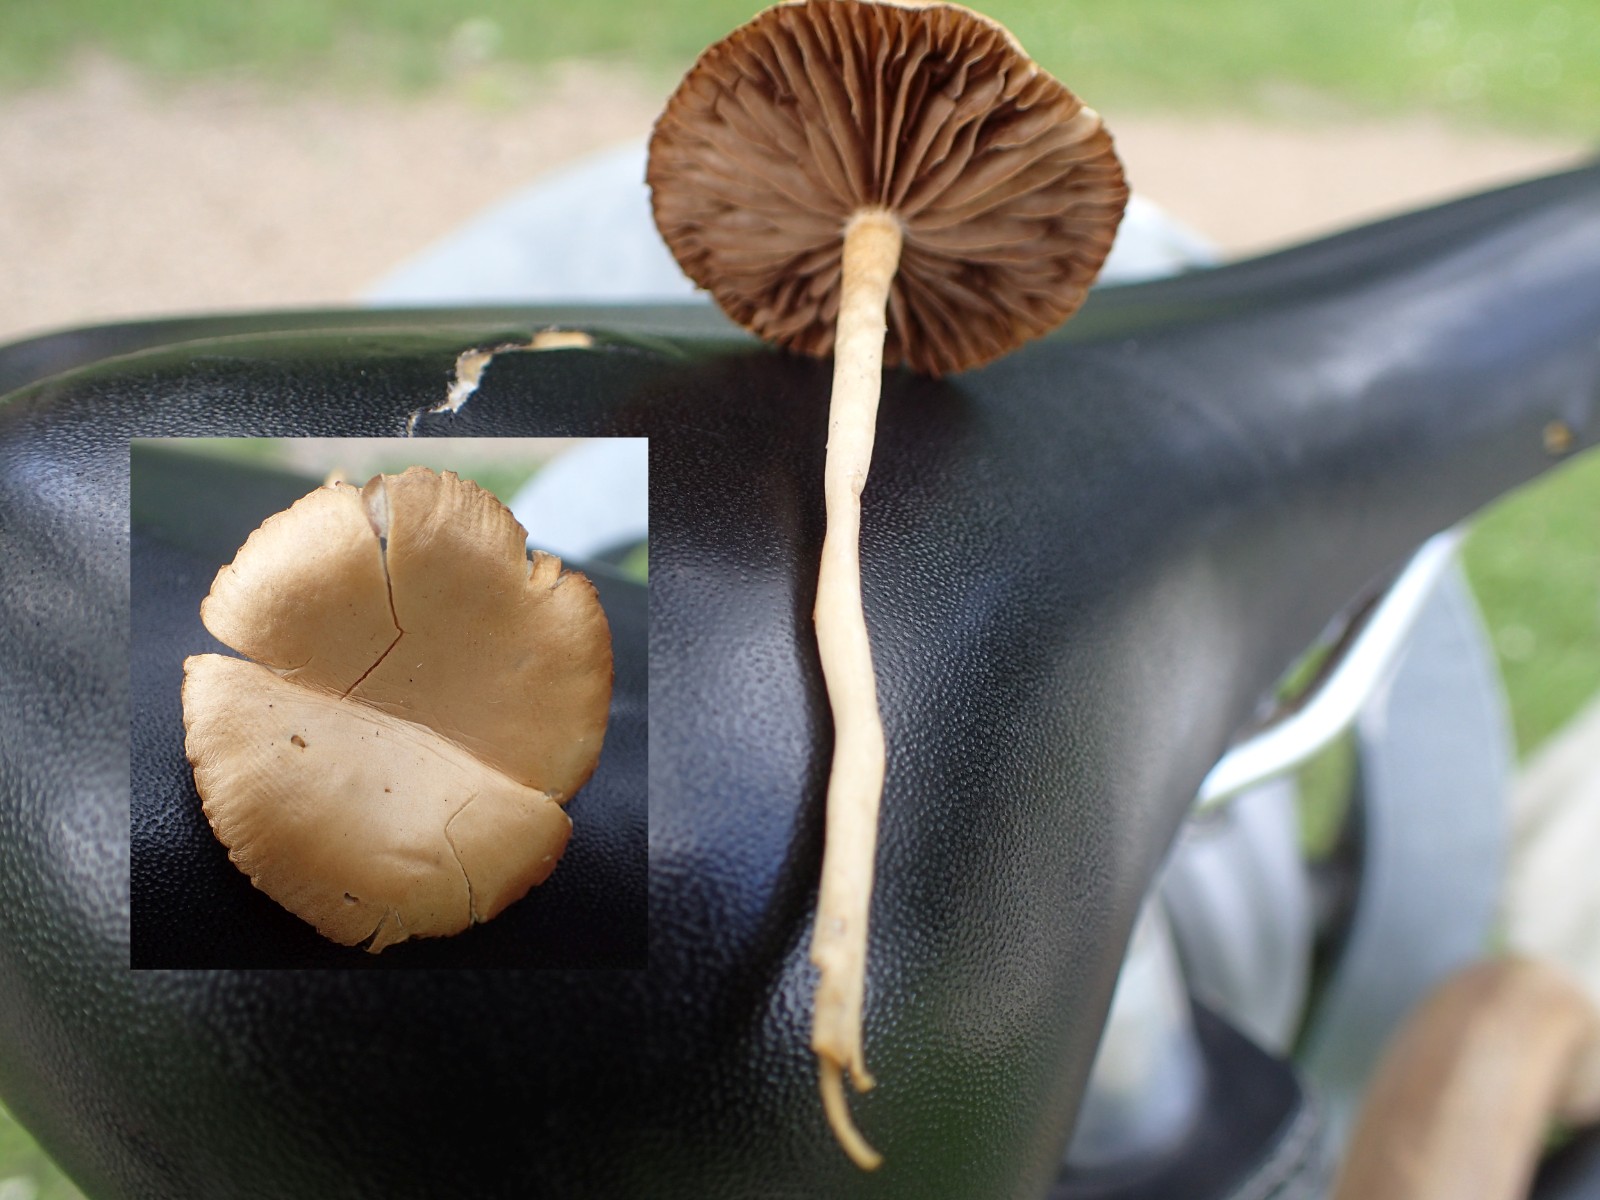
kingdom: Fungi
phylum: Basidiomycota
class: Agaricomycetes
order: Agaricales
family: Strophariaceae
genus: Agrocybe
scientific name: Agrocybe pediades
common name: almindelig agerhat
